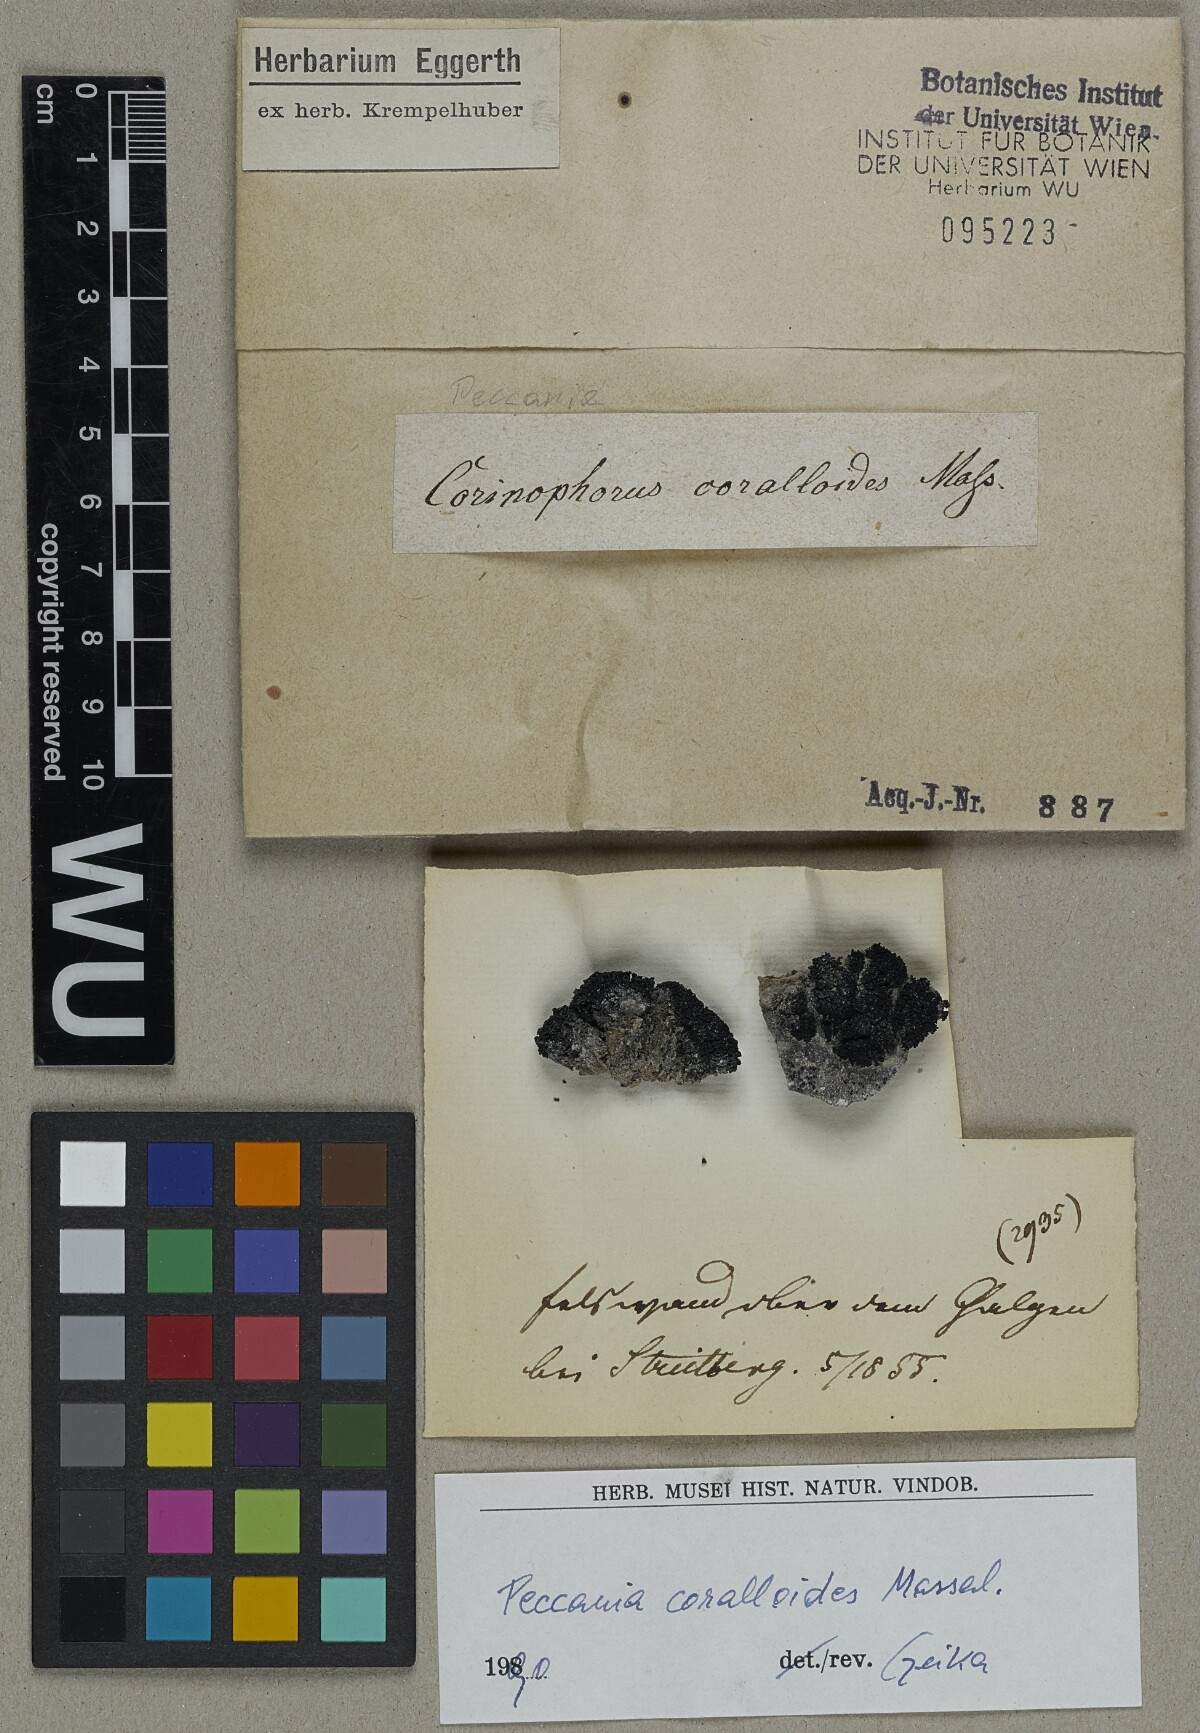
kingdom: Fungi
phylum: Ascomycota
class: Lichinomycetes
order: Lichinales
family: Lichinaceae
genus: Peccania
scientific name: Peccania coralloides
